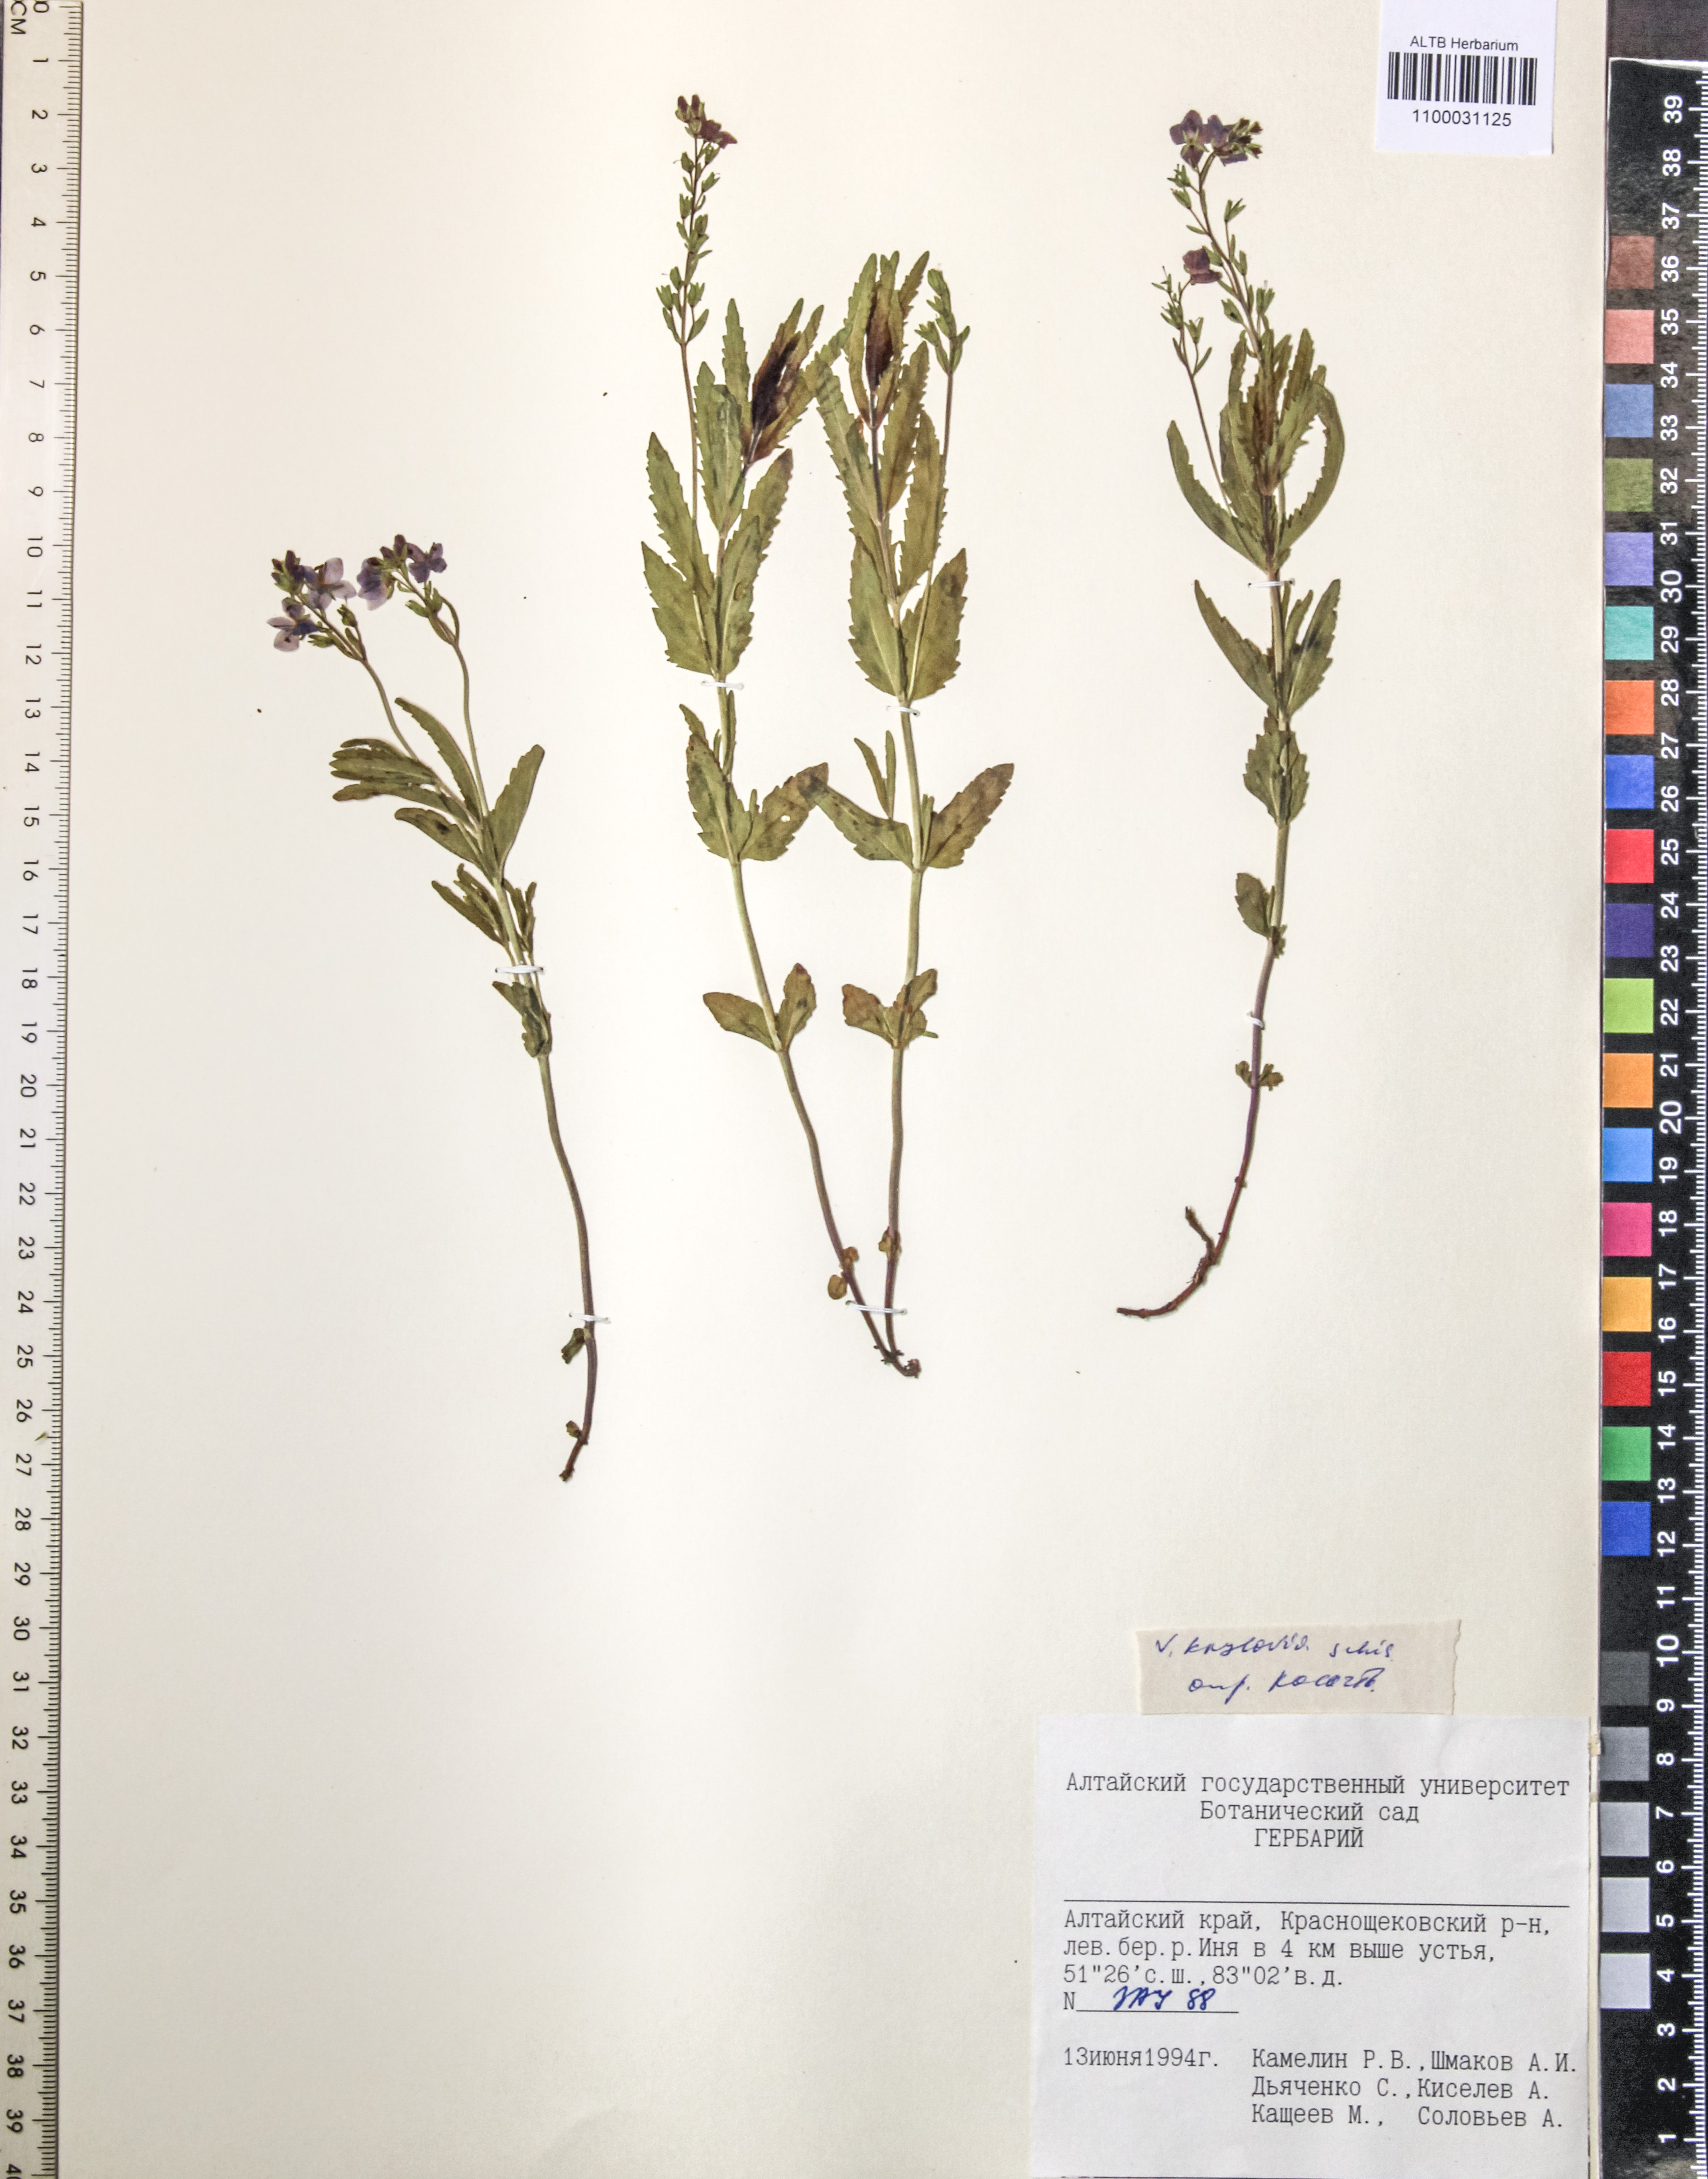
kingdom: Plantae
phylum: Tracheophyta
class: Magnoliopsida
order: Lamiales
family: Plantaginaceae
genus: Veronica
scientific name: Veronica krylovii
